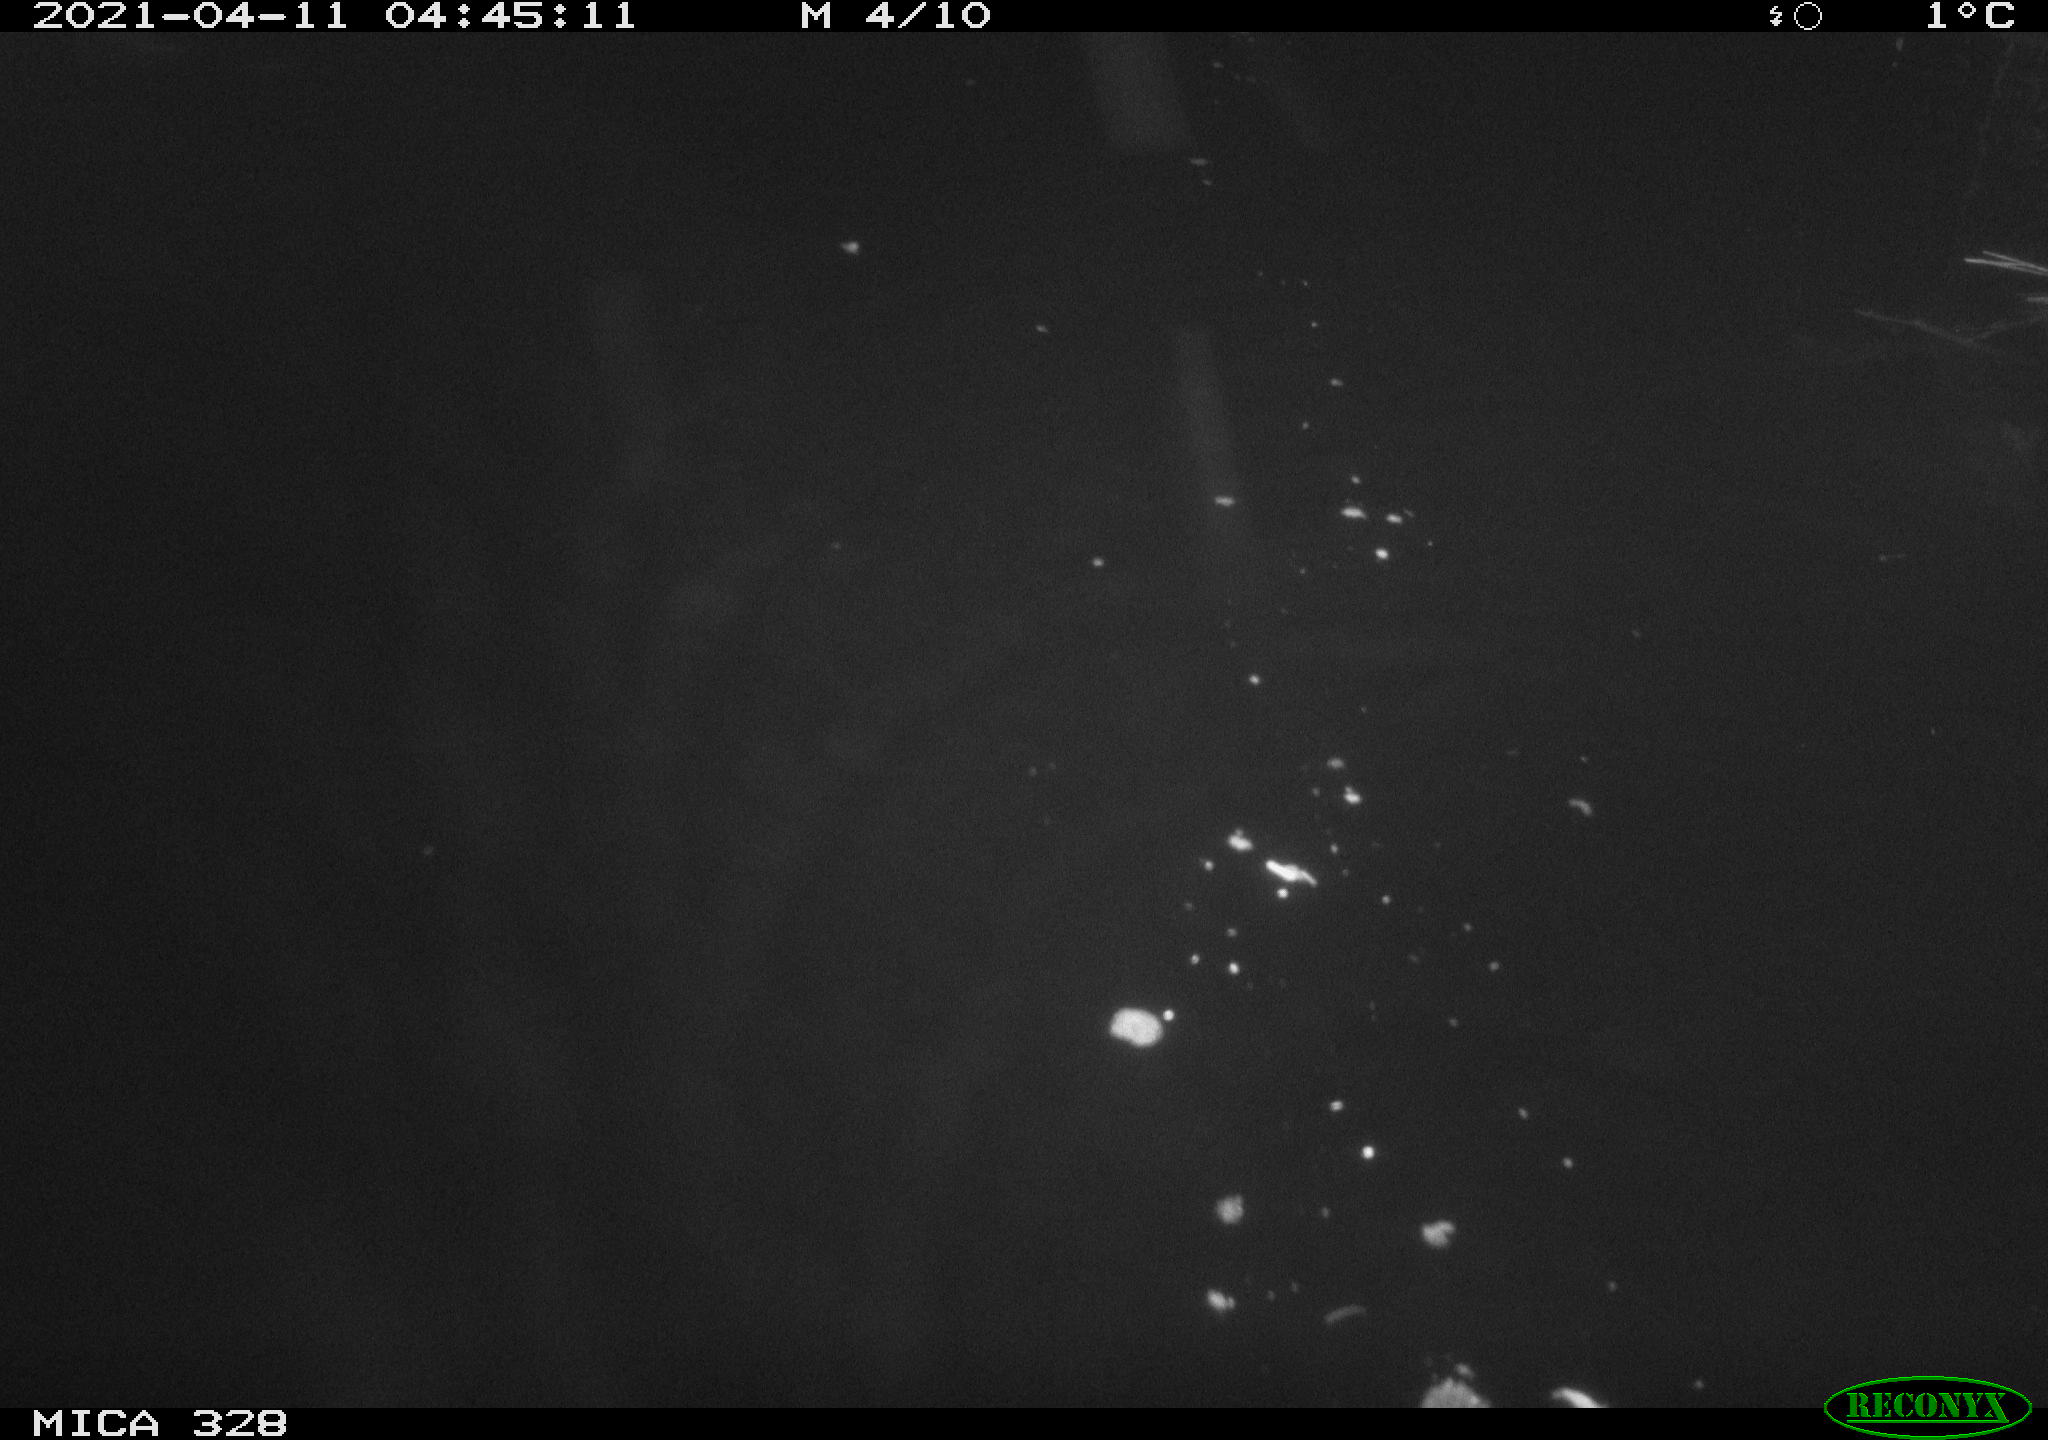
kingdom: Animalia
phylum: Chordata
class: Mammalia
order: Rodentia
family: Cricetidae
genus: Ondatra
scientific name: Ondatra zibethicus
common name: Muskrat
